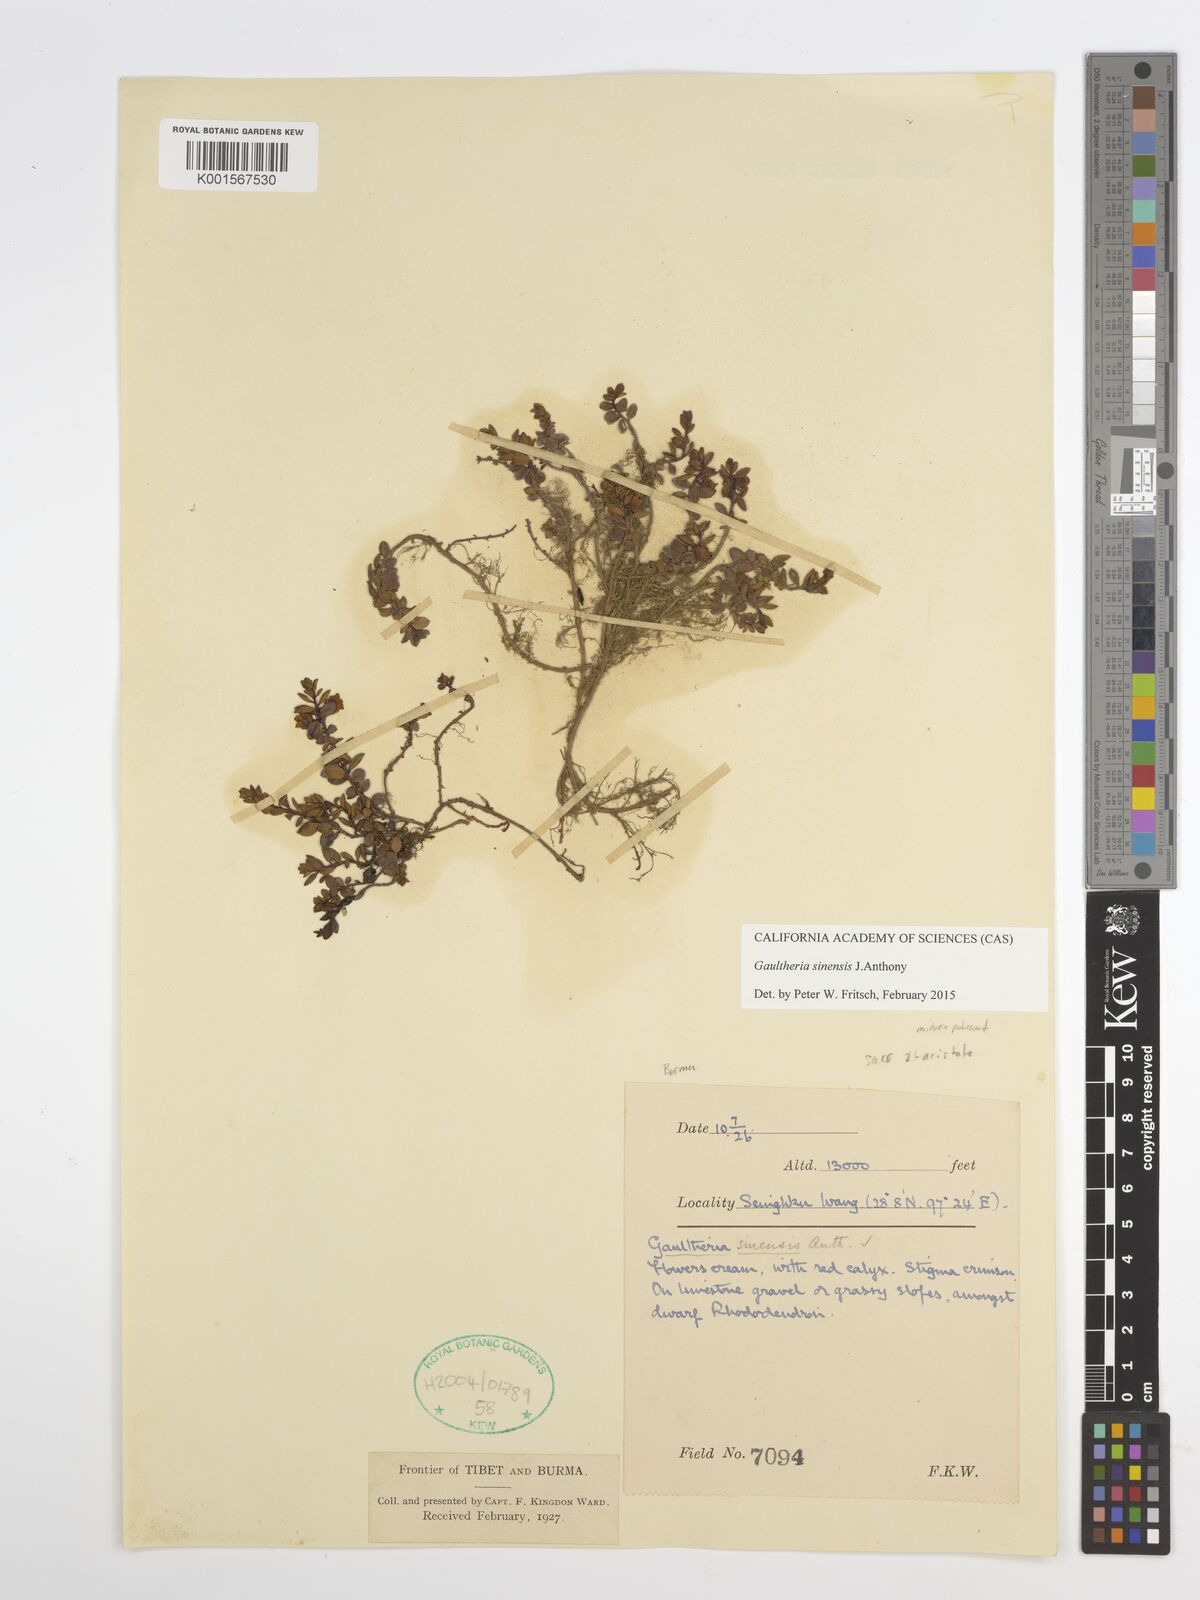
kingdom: Plantae
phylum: Tracheophyta
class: Magnoliopsida
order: Ericales
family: Ericaceae
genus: Gaultheria
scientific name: Gaultheria sinensis
